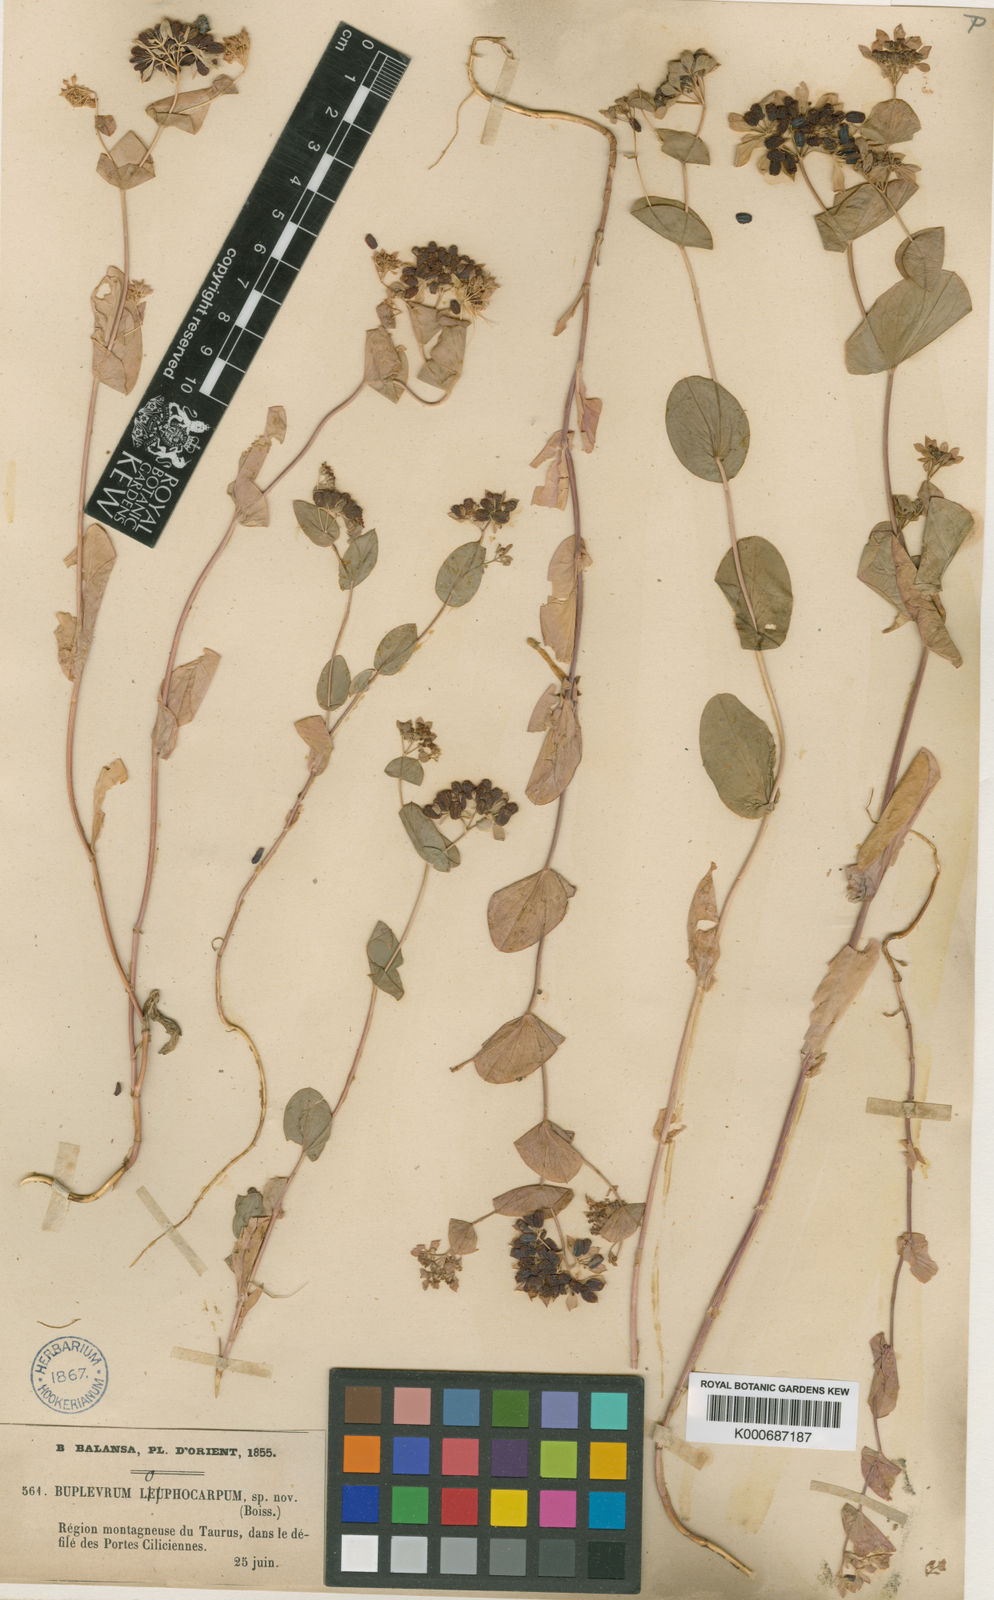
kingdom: Plantae
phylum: Tracheophyta
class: Magnoliopsida
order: Apiales
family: Apiaceae
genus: Bupleurum
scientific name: Bupleurum lophocarpum
